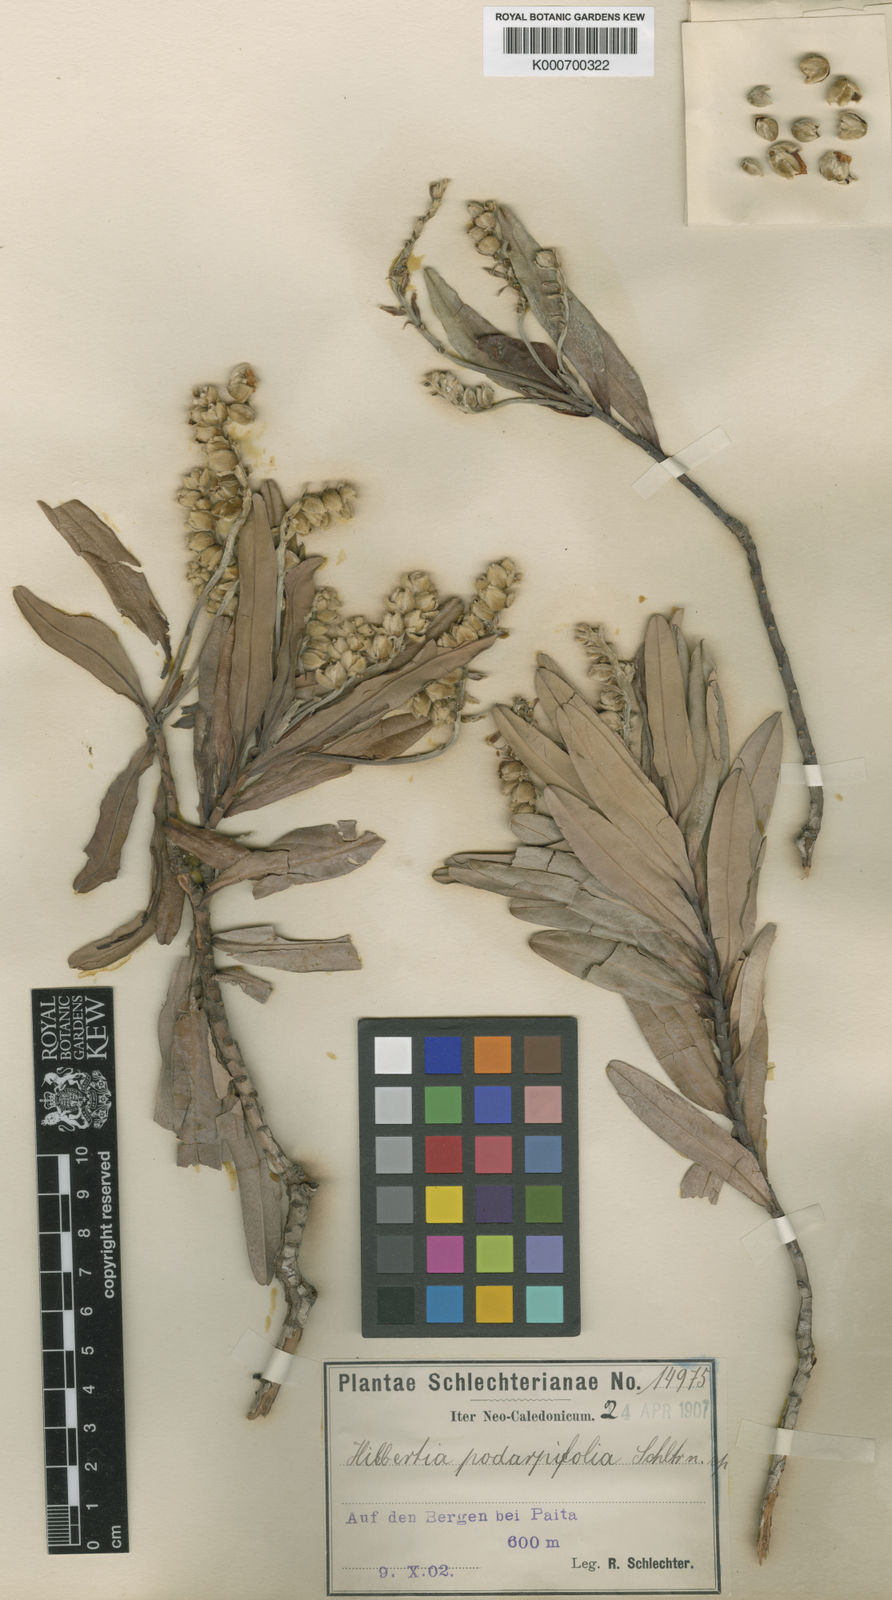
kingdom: Plantae
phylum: Tracheophyta
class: Magnoliopsida
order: Dilleniales
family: Dilleniaceae
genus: Hibbertia
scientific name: Hibbertia podocarpifolia
